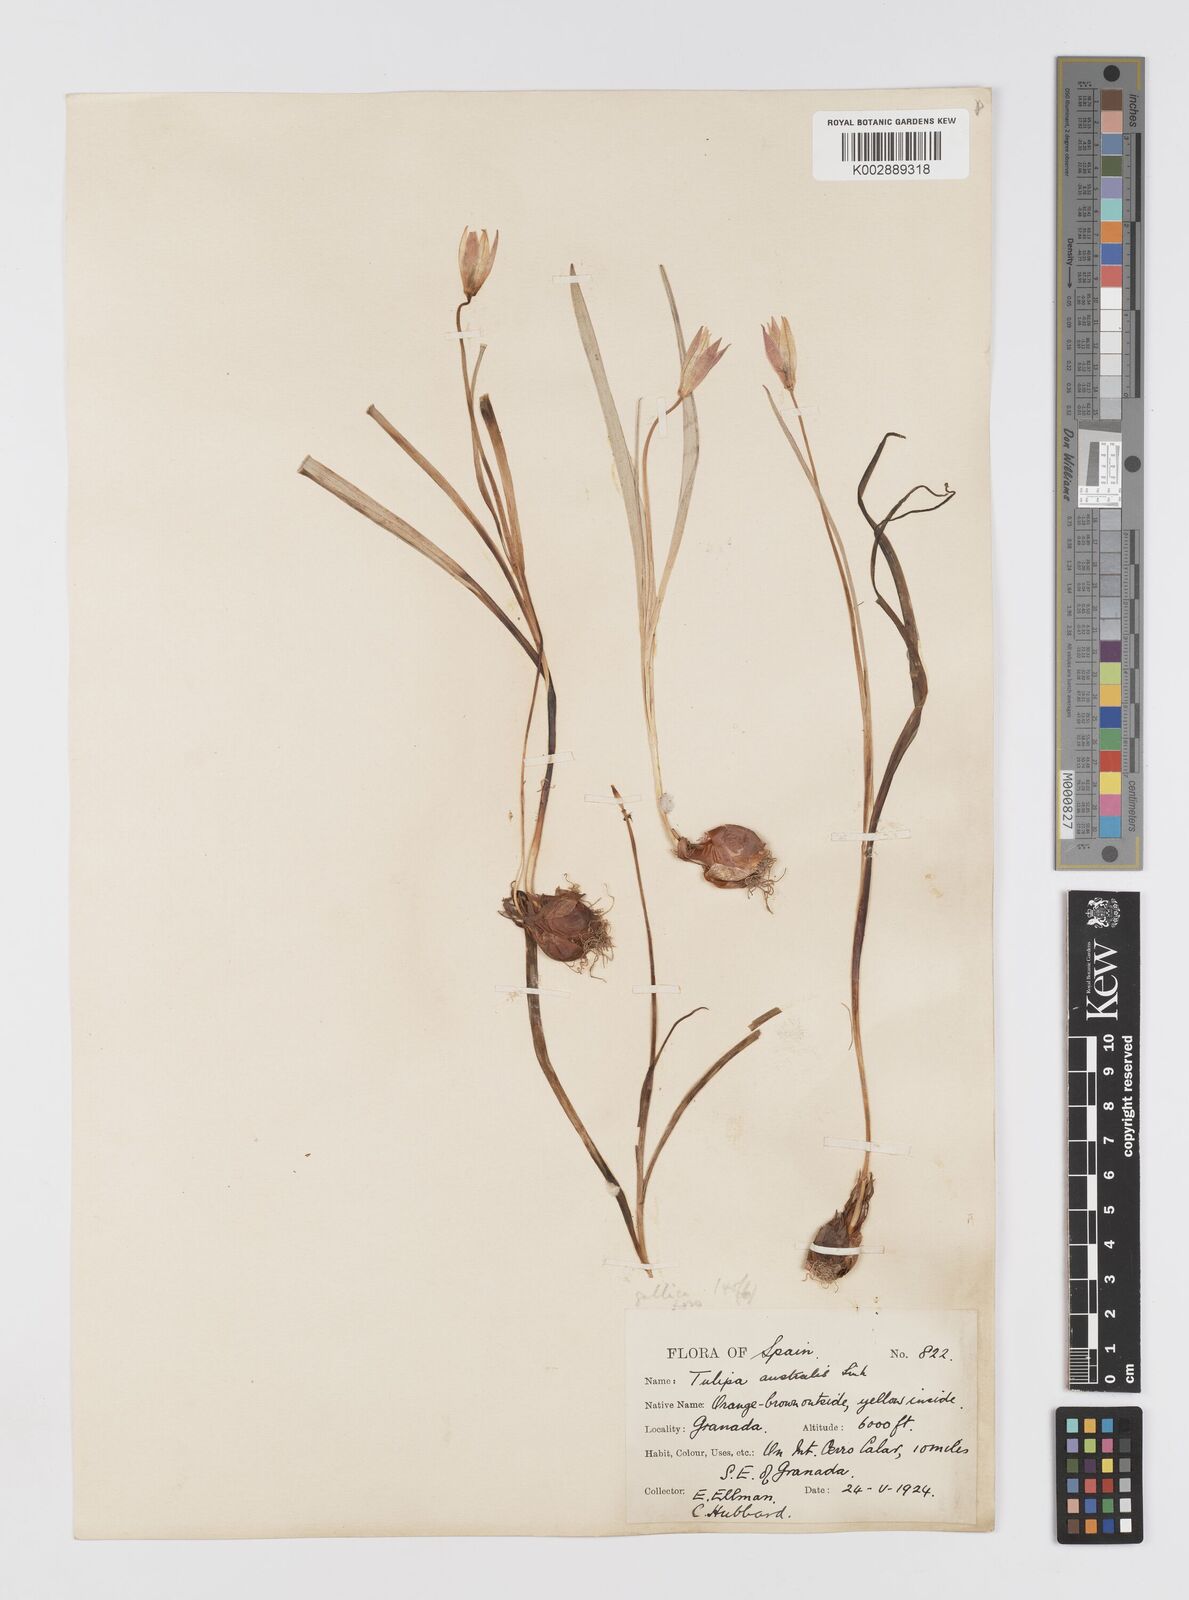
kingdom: Plantae
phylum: Tracheophyta
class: Liliopsida
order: Liliales
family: Liliaceae
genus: Tulipa
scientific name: Tulipa sylvestris
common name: Wild tulip
